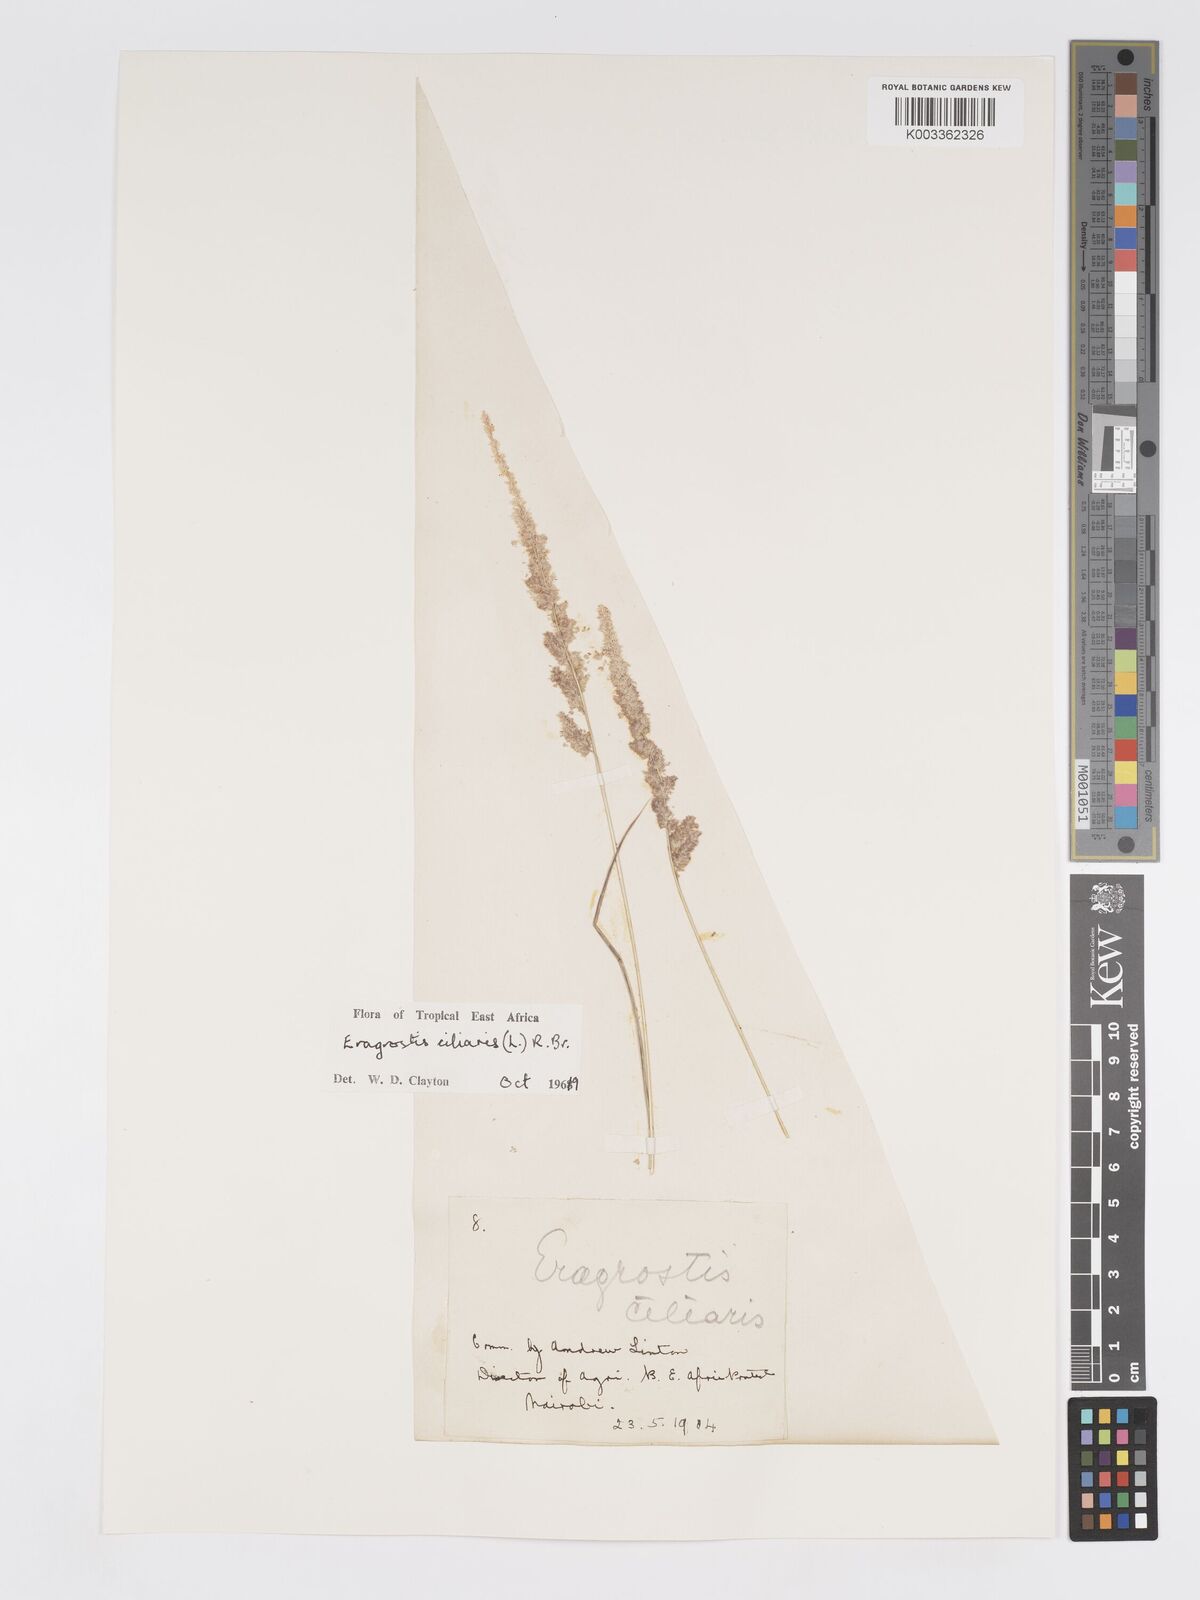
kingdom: Plantae
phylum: Tracheophyta
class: Liliopsida
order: Poales
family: Poaceae
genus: Eragrostis
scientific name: Eragrostis ciliaris
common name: Gophertail lovegrass
